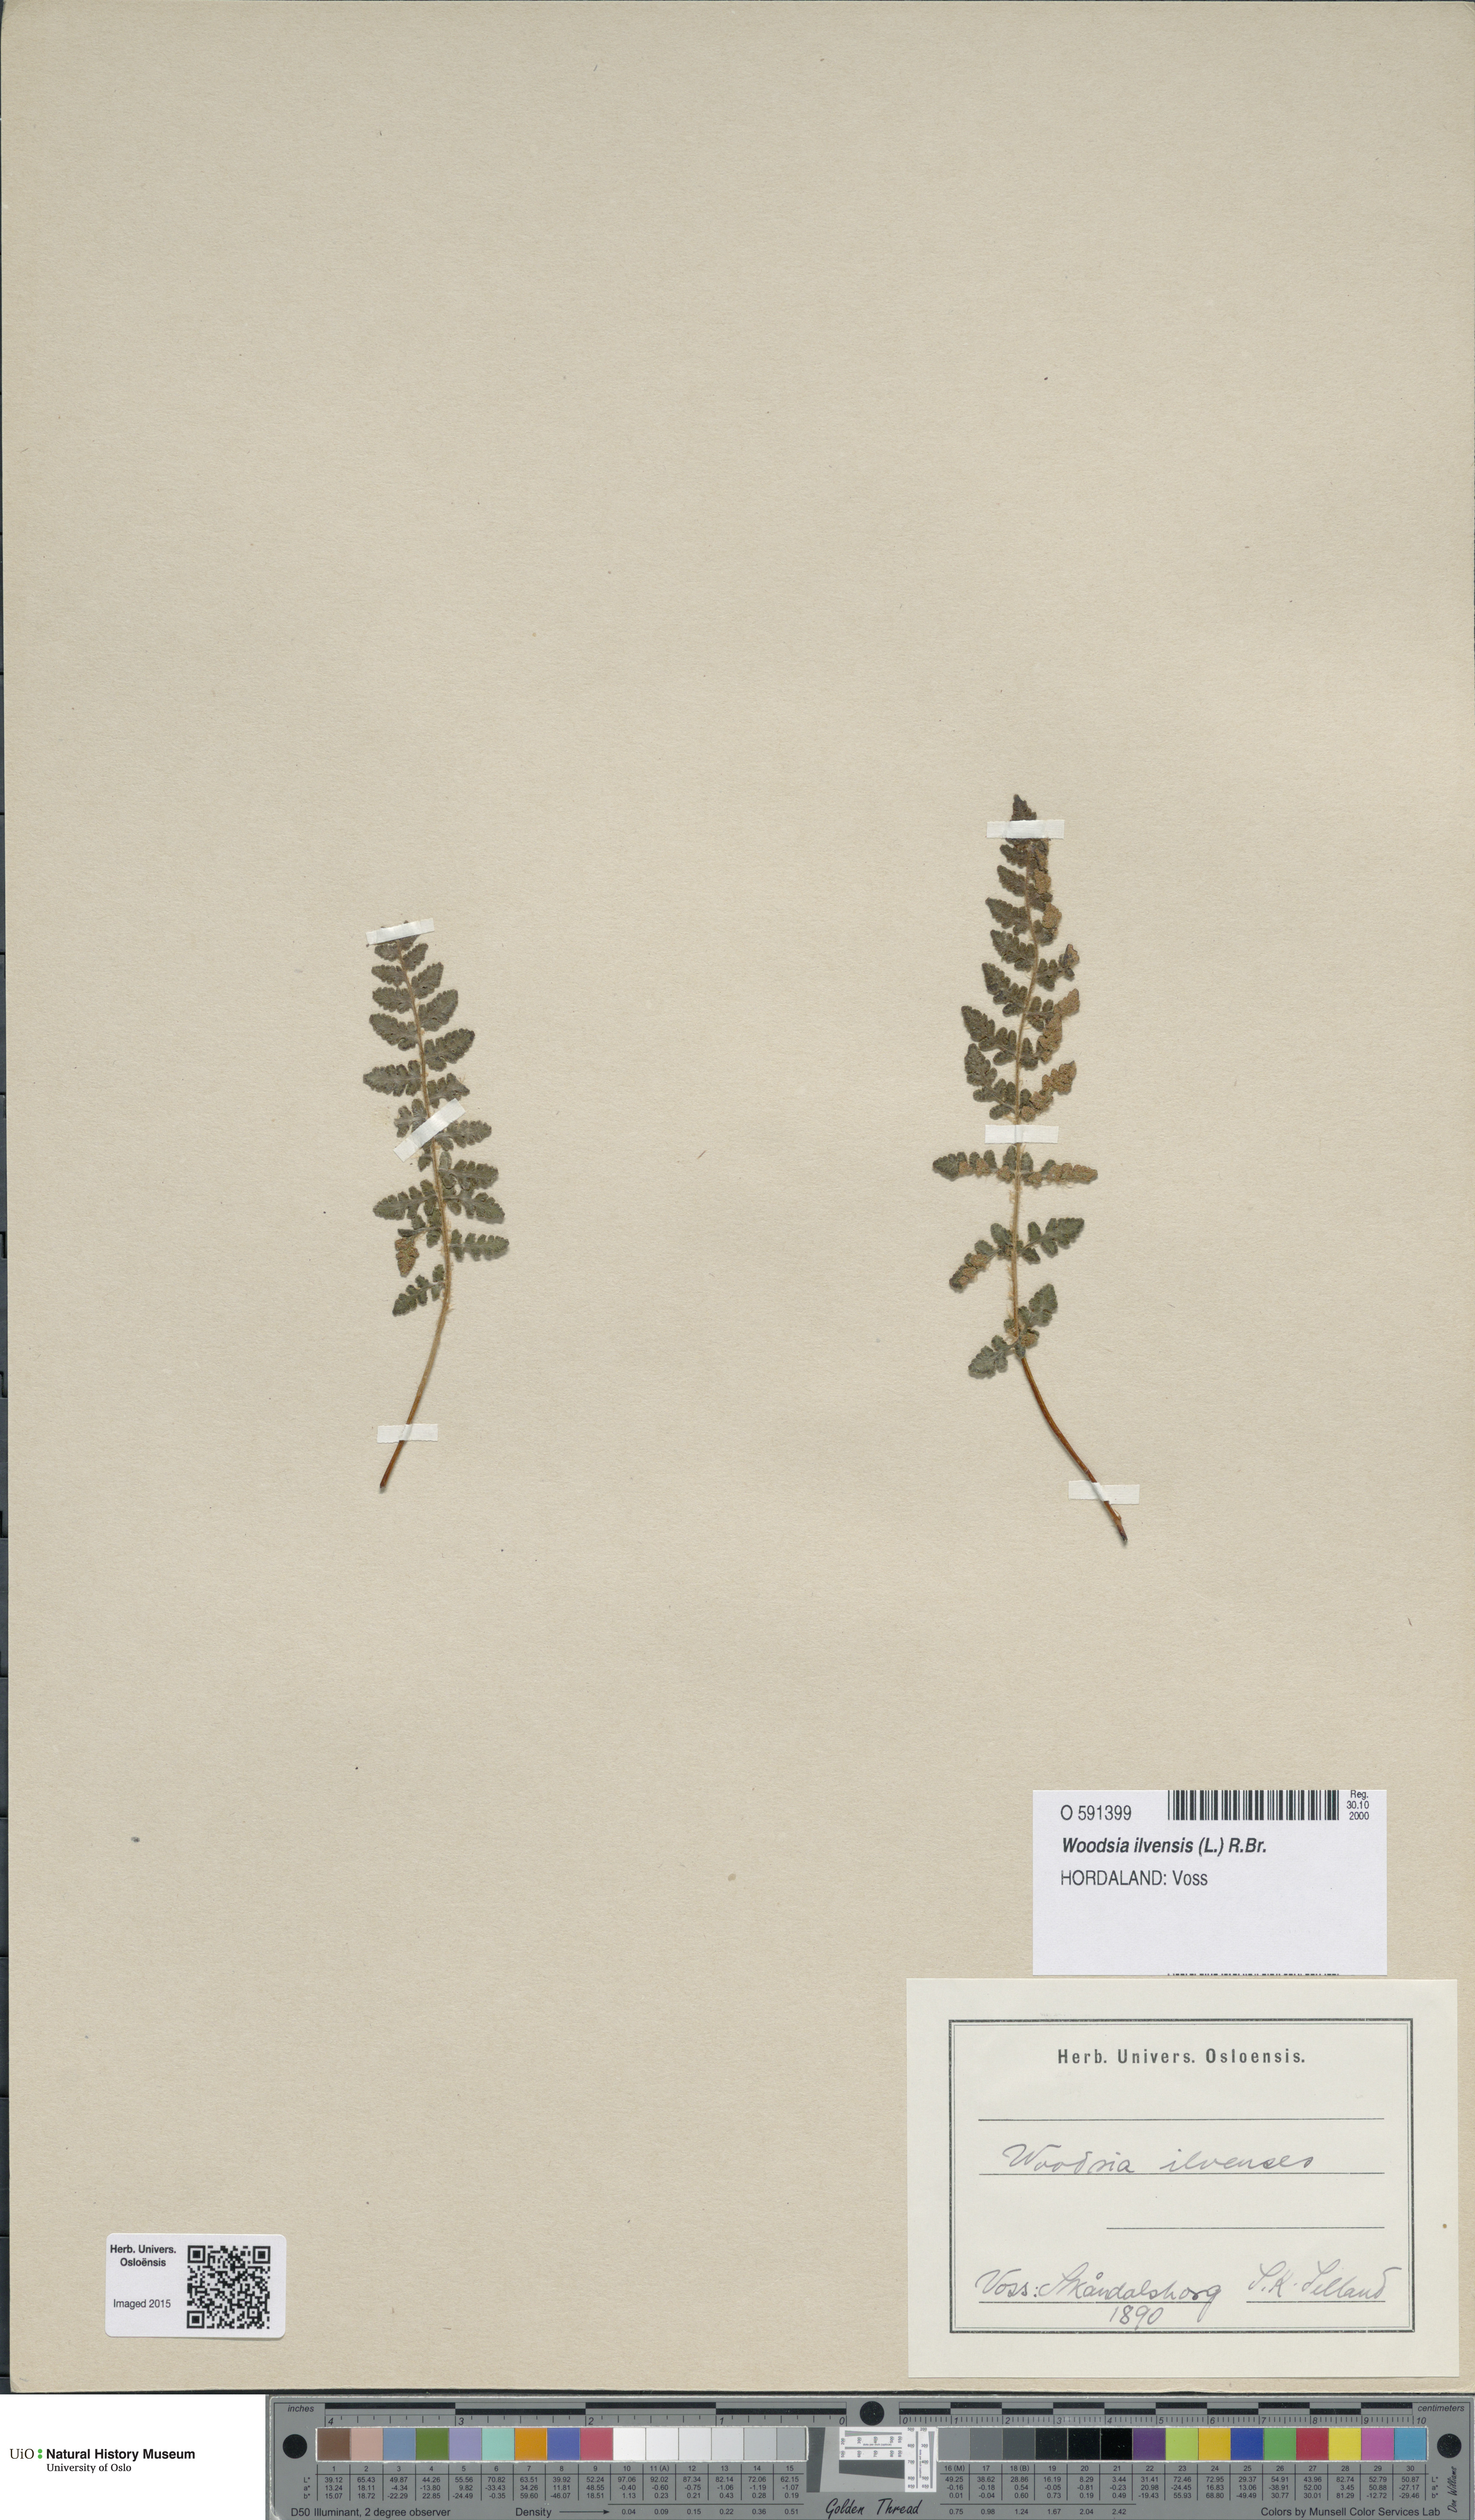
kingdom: Plantae
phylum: Tracheophyta
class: Polypodiopsida
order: Polypodiales
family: Woodsiaceae
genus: Woodsia
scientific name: Woodsia ilvensis
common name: Fragrant woodsia
